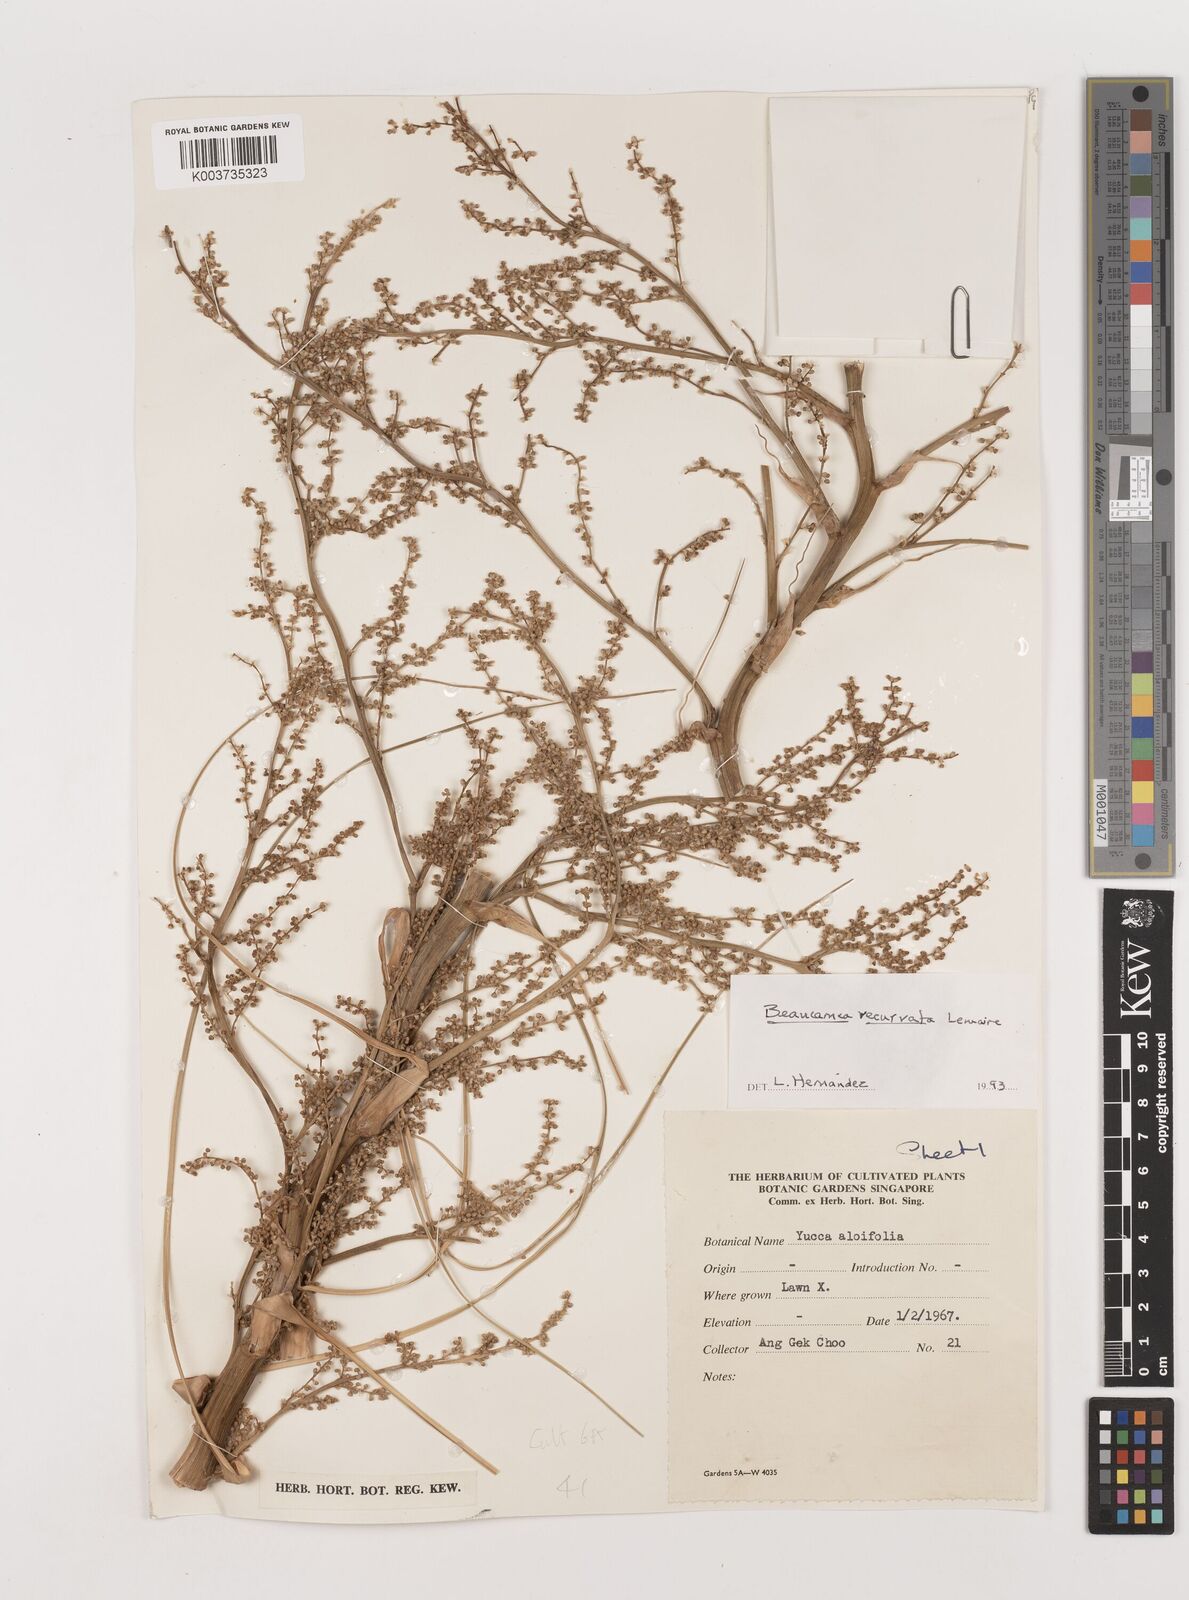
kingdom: Plantae
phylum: Tracheophyta
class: Liliopsida
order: Asparagales
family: Asparagaceae
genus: Beaucarnea
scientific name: Beaucarnea recurvata
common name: Stripy  ponytail
